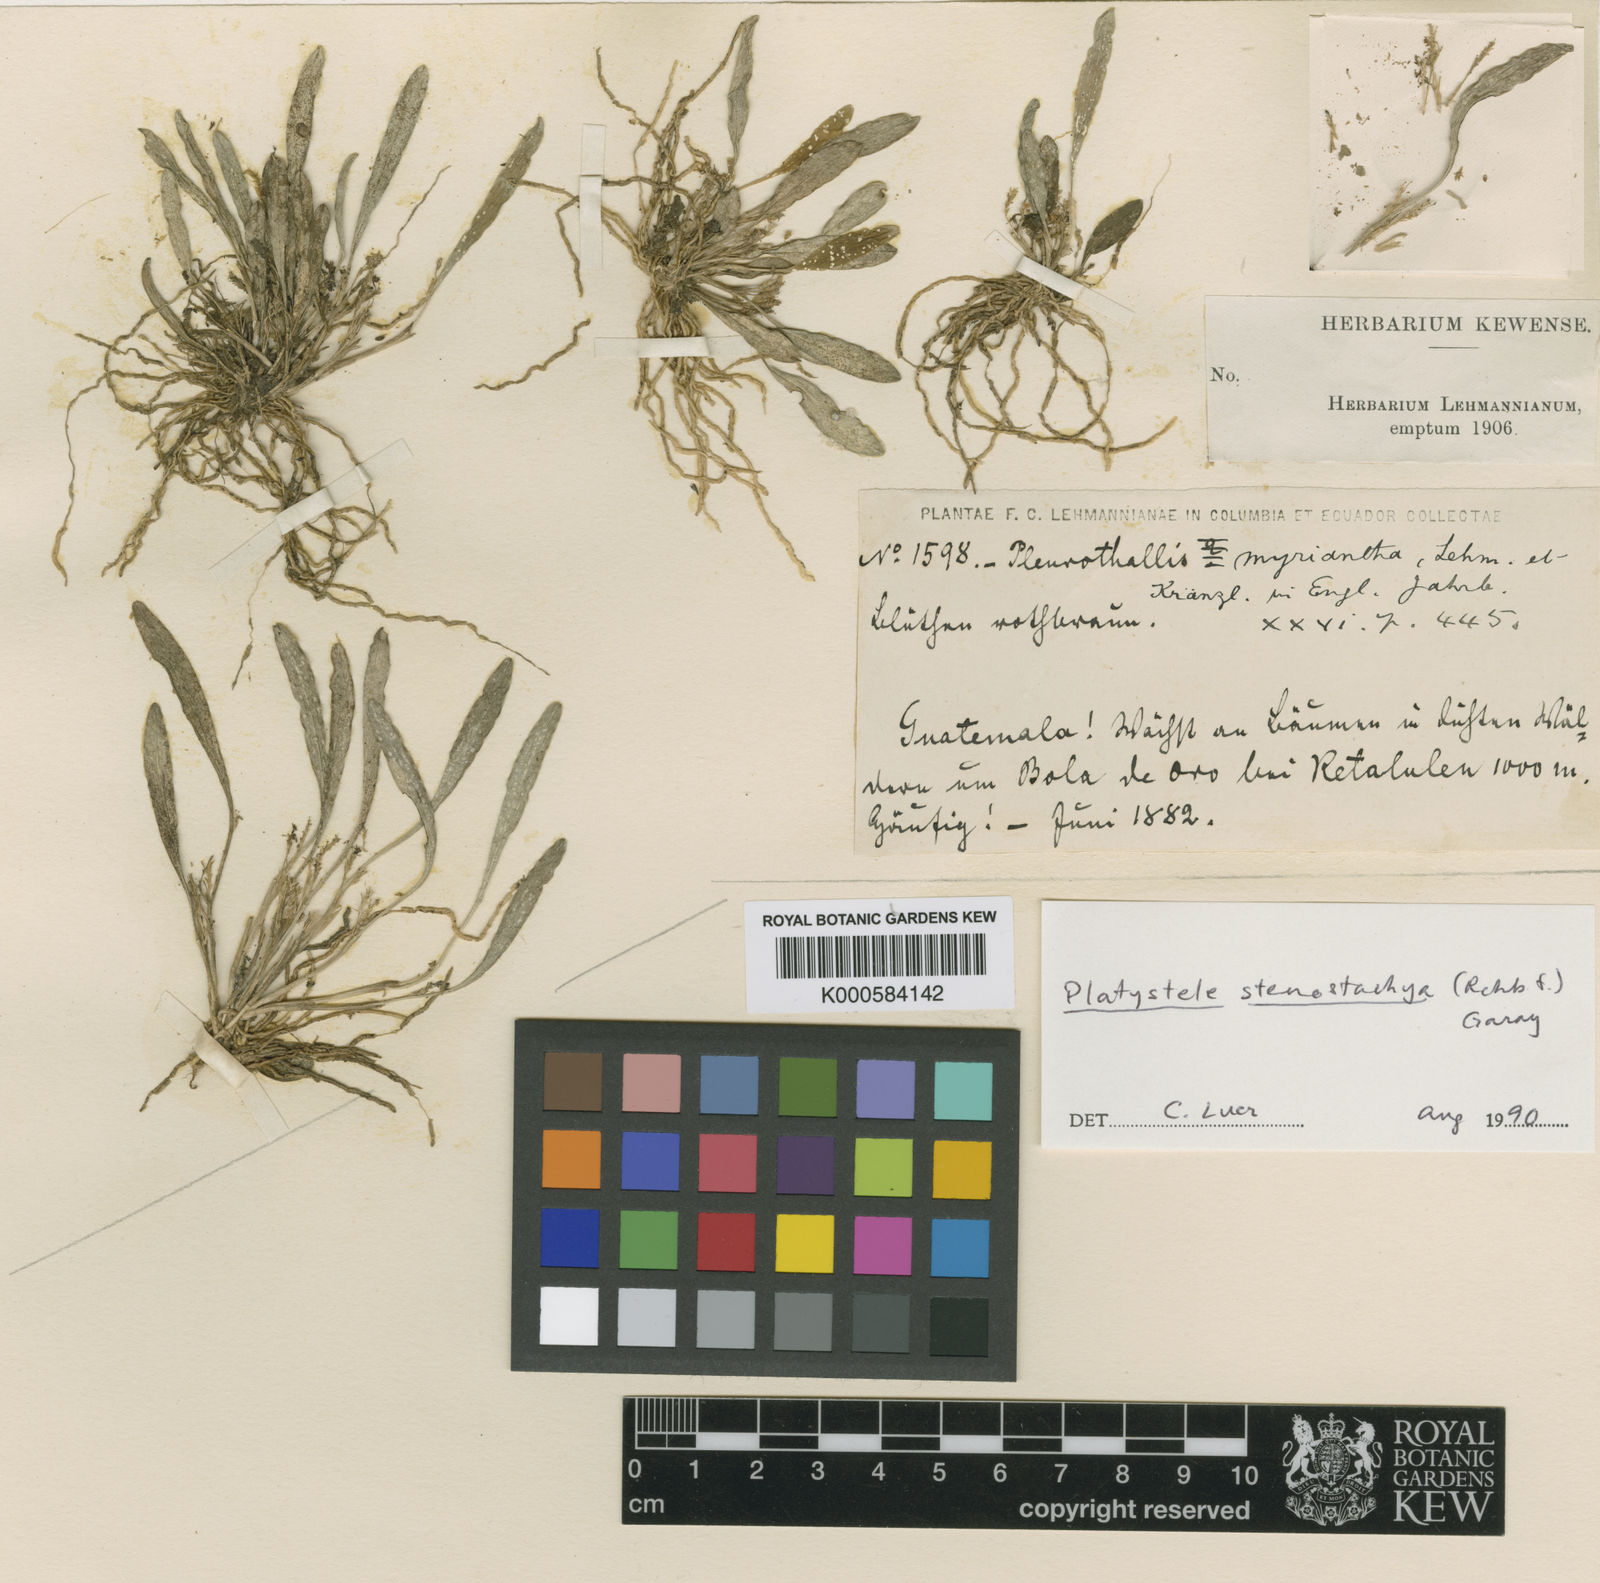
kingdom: Plantae
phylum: Tracheophyta
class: Liliopsida
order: Asparagales
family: Orchidaceae
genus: Platystele
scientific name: Platystele stenostachya
